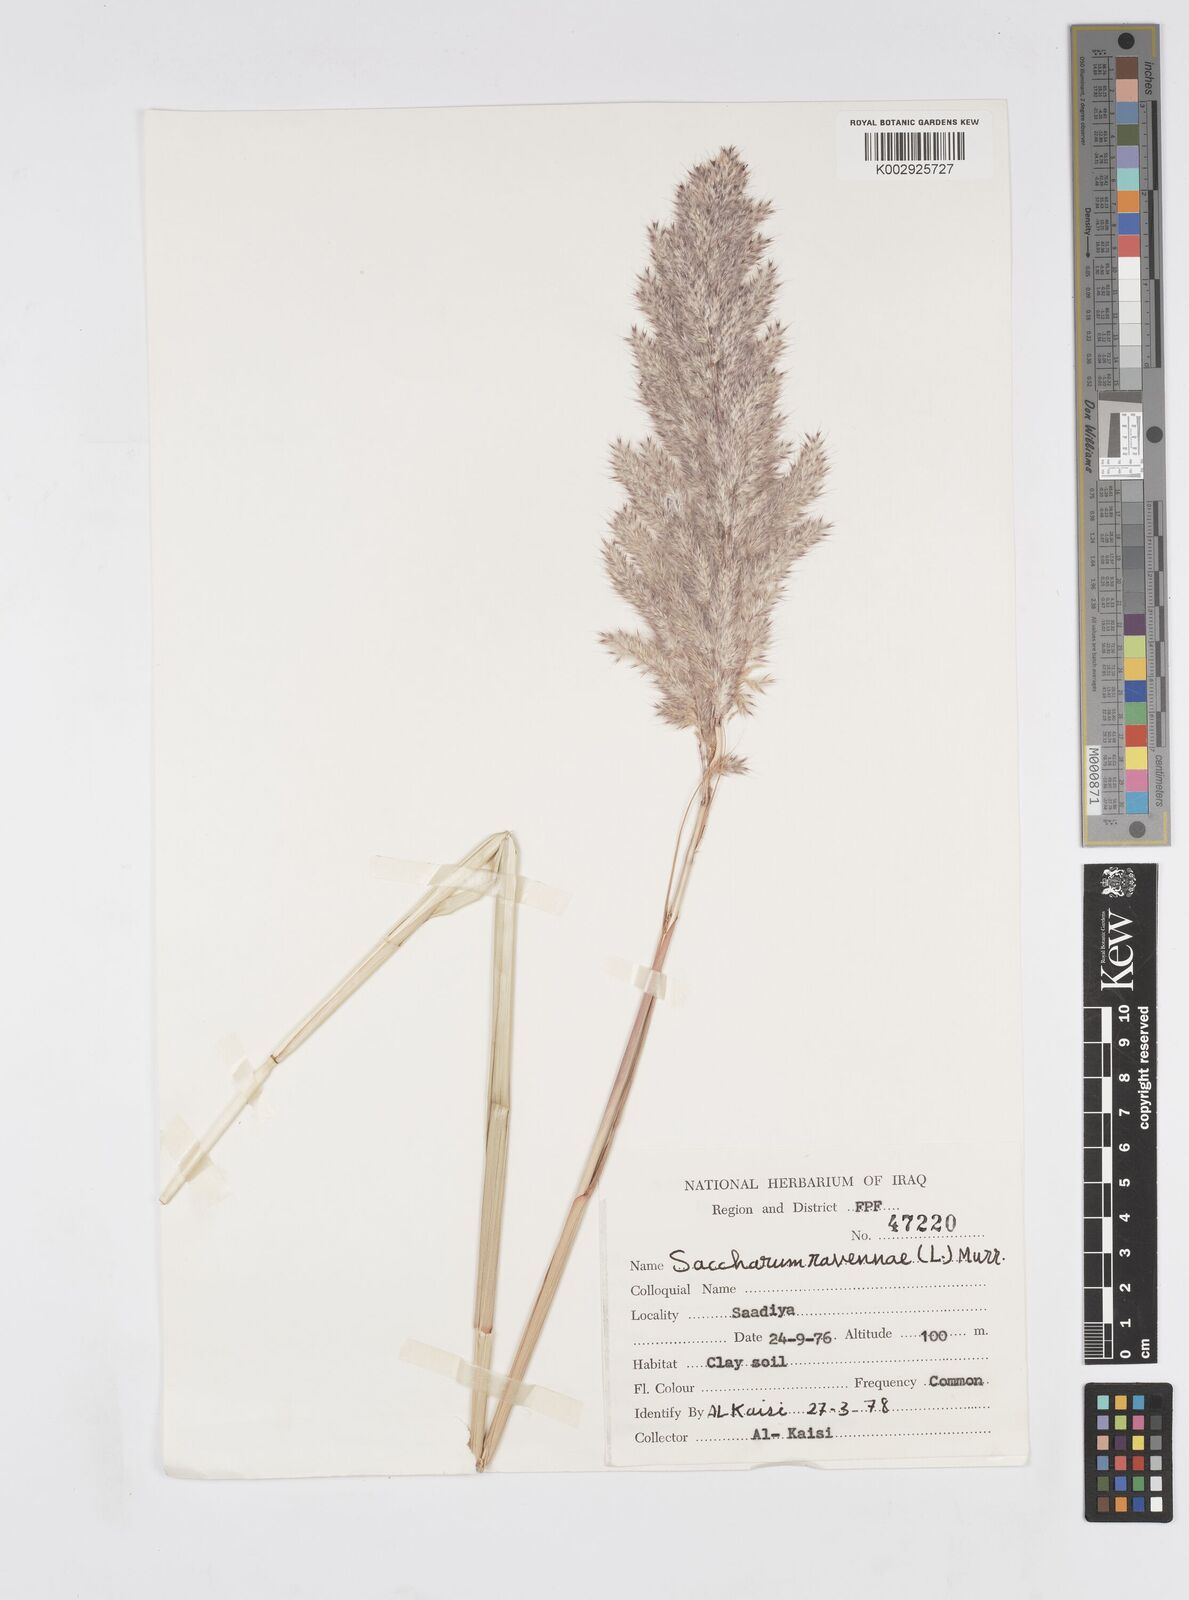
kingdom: Plantae
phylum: Tracheophyta
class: Liliopsida
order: Poales
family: Poaceae
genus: Tripidium
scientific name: Tripidium ravennae
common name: Ravenna grass
